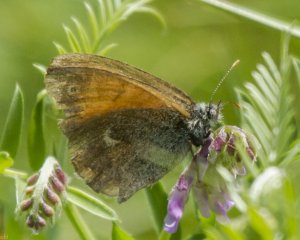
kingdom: Animalia
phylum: Arthropoda
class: Insecta
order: Lepidoptera
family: Nymphalidae
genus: Coenonympha
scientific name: Coenonympha tullia
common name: Large Heath
